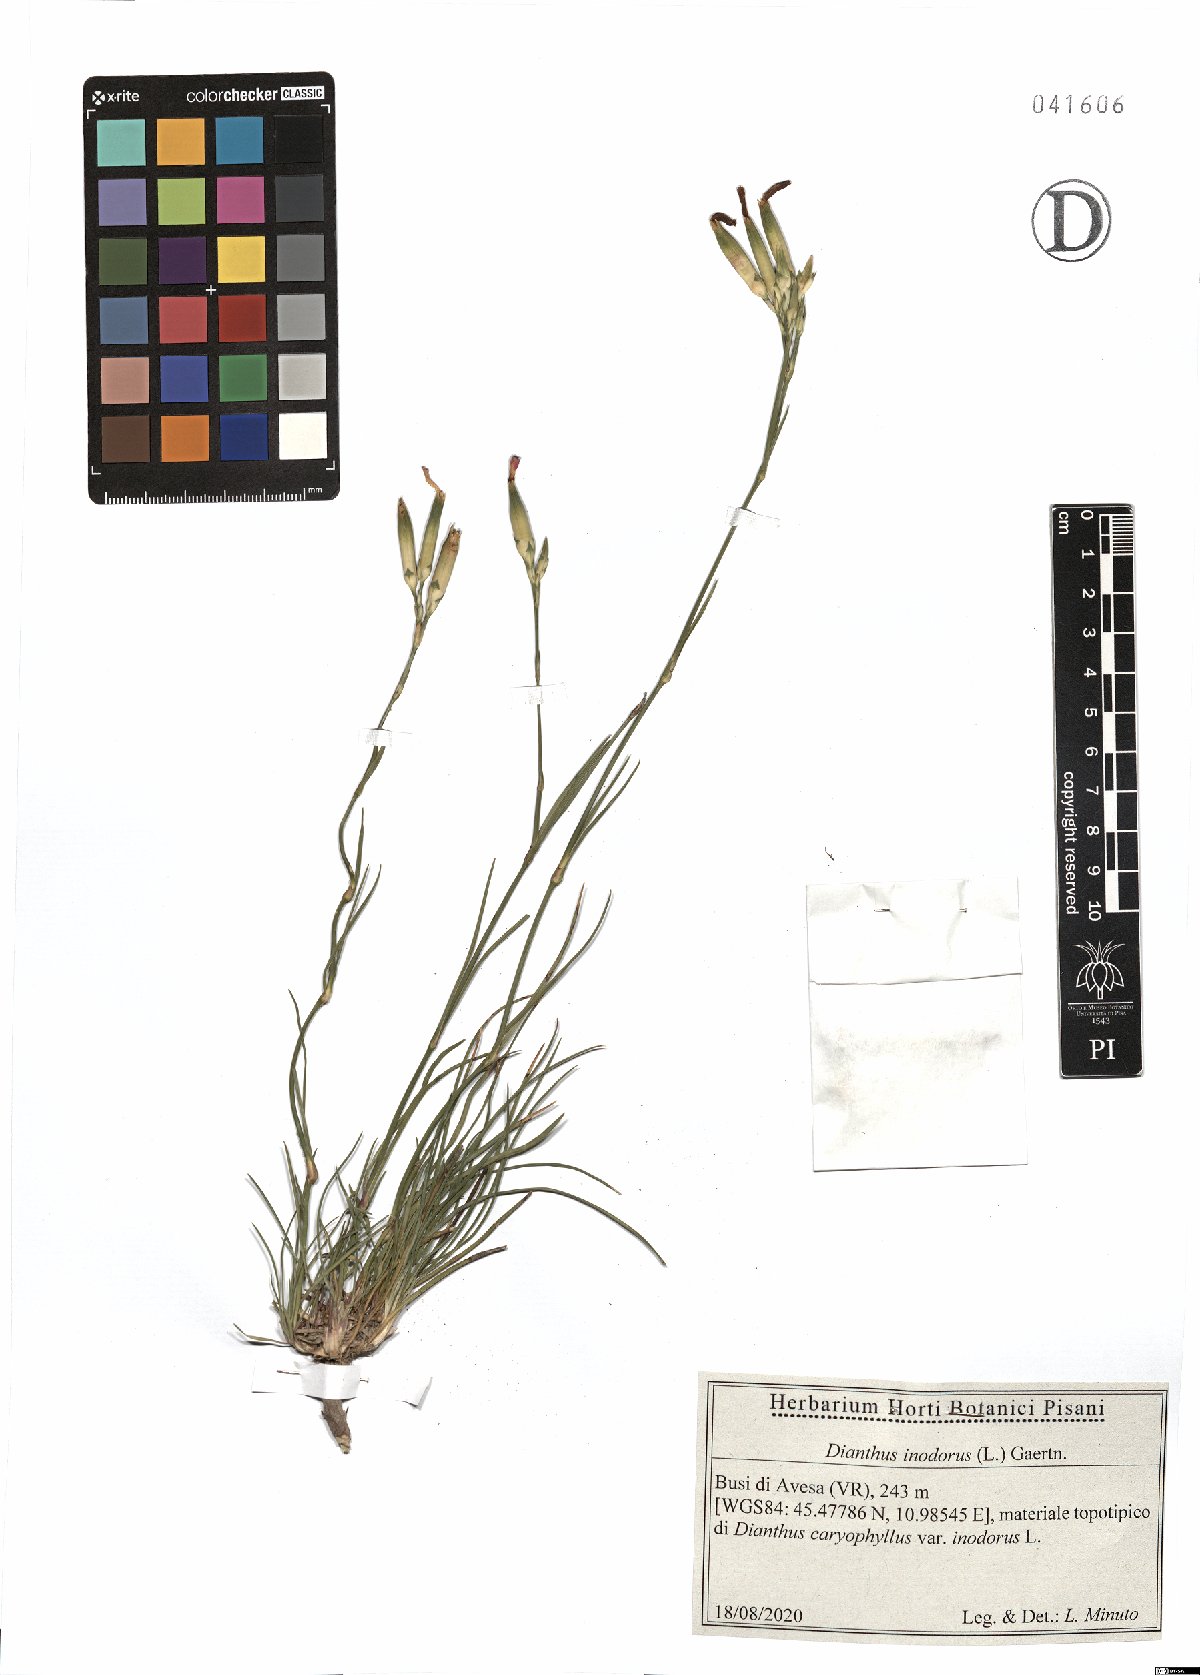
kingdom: Plantae
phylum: Tracheophyta
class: Magnoliopsida
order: Caryophyllales
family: Caryophyllaceae
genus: Dianthus
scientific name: Dianthus sylvestris
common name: Wood pink
